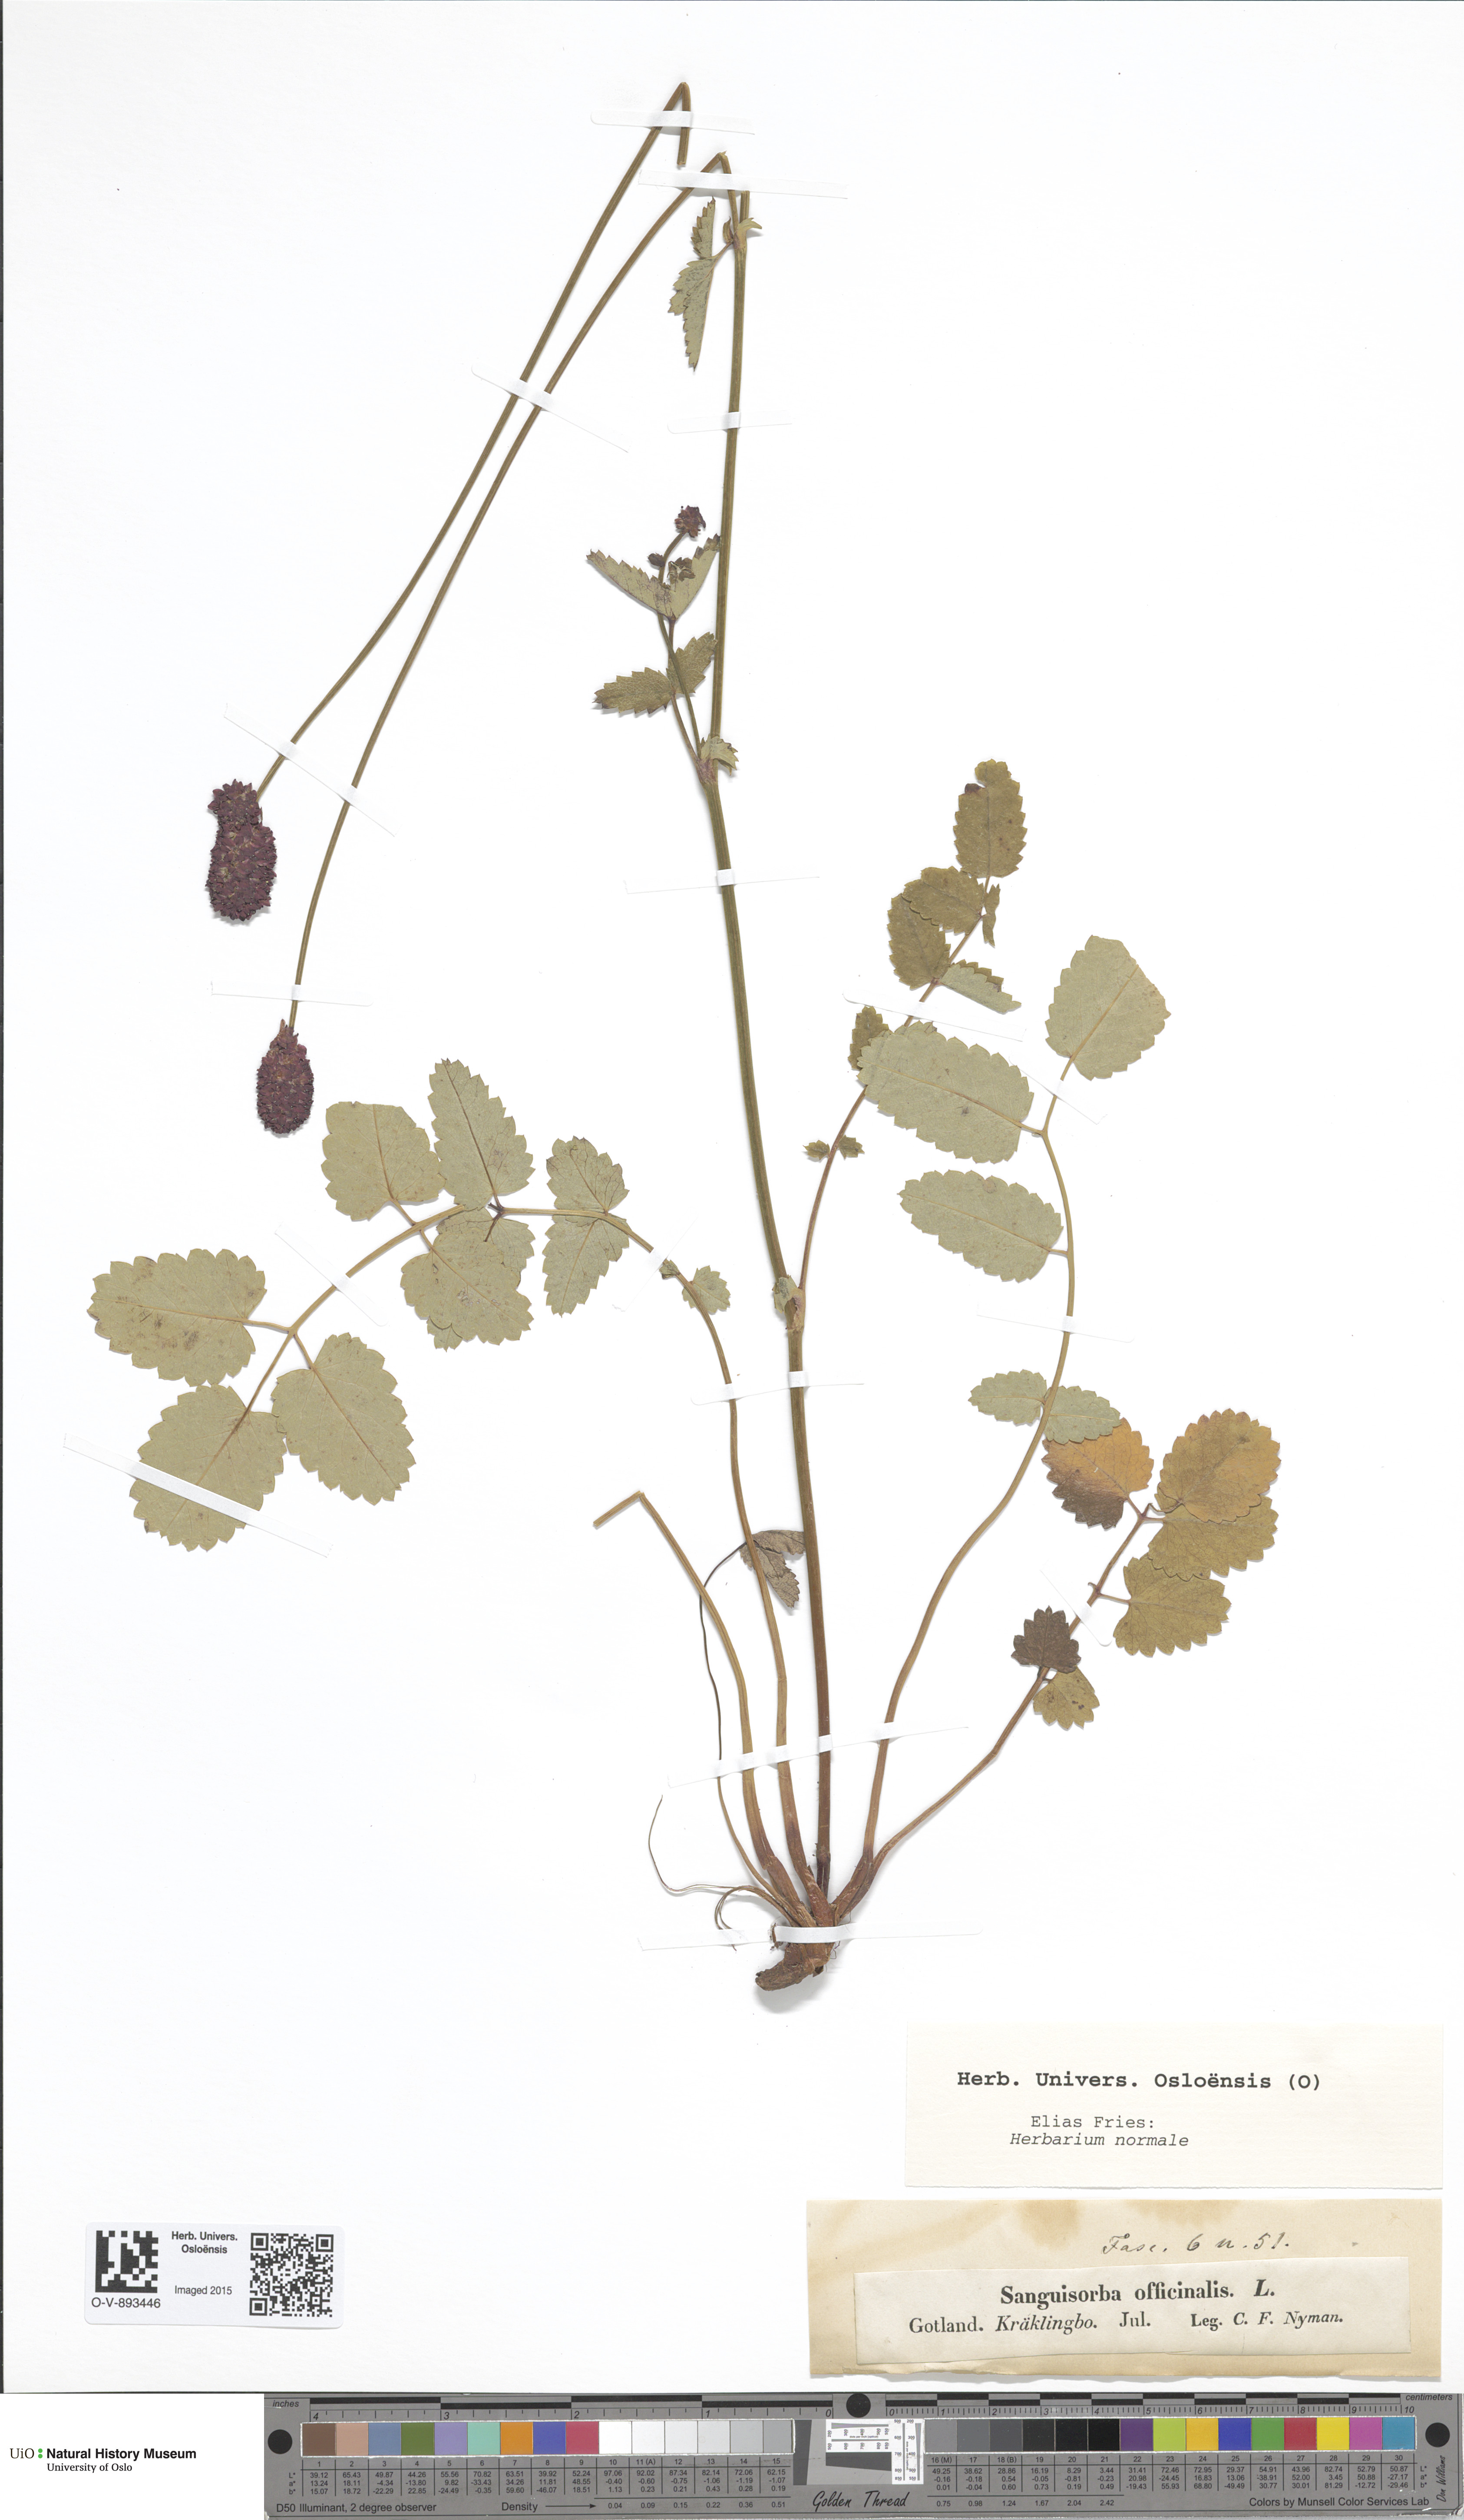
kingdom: Plantae
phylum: Tracheophyta
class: Magnoliopsida
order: Rosales
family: Rosaceae
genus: Sanguisorba
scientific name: Sanguisorba officinalis
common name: Great burnet
